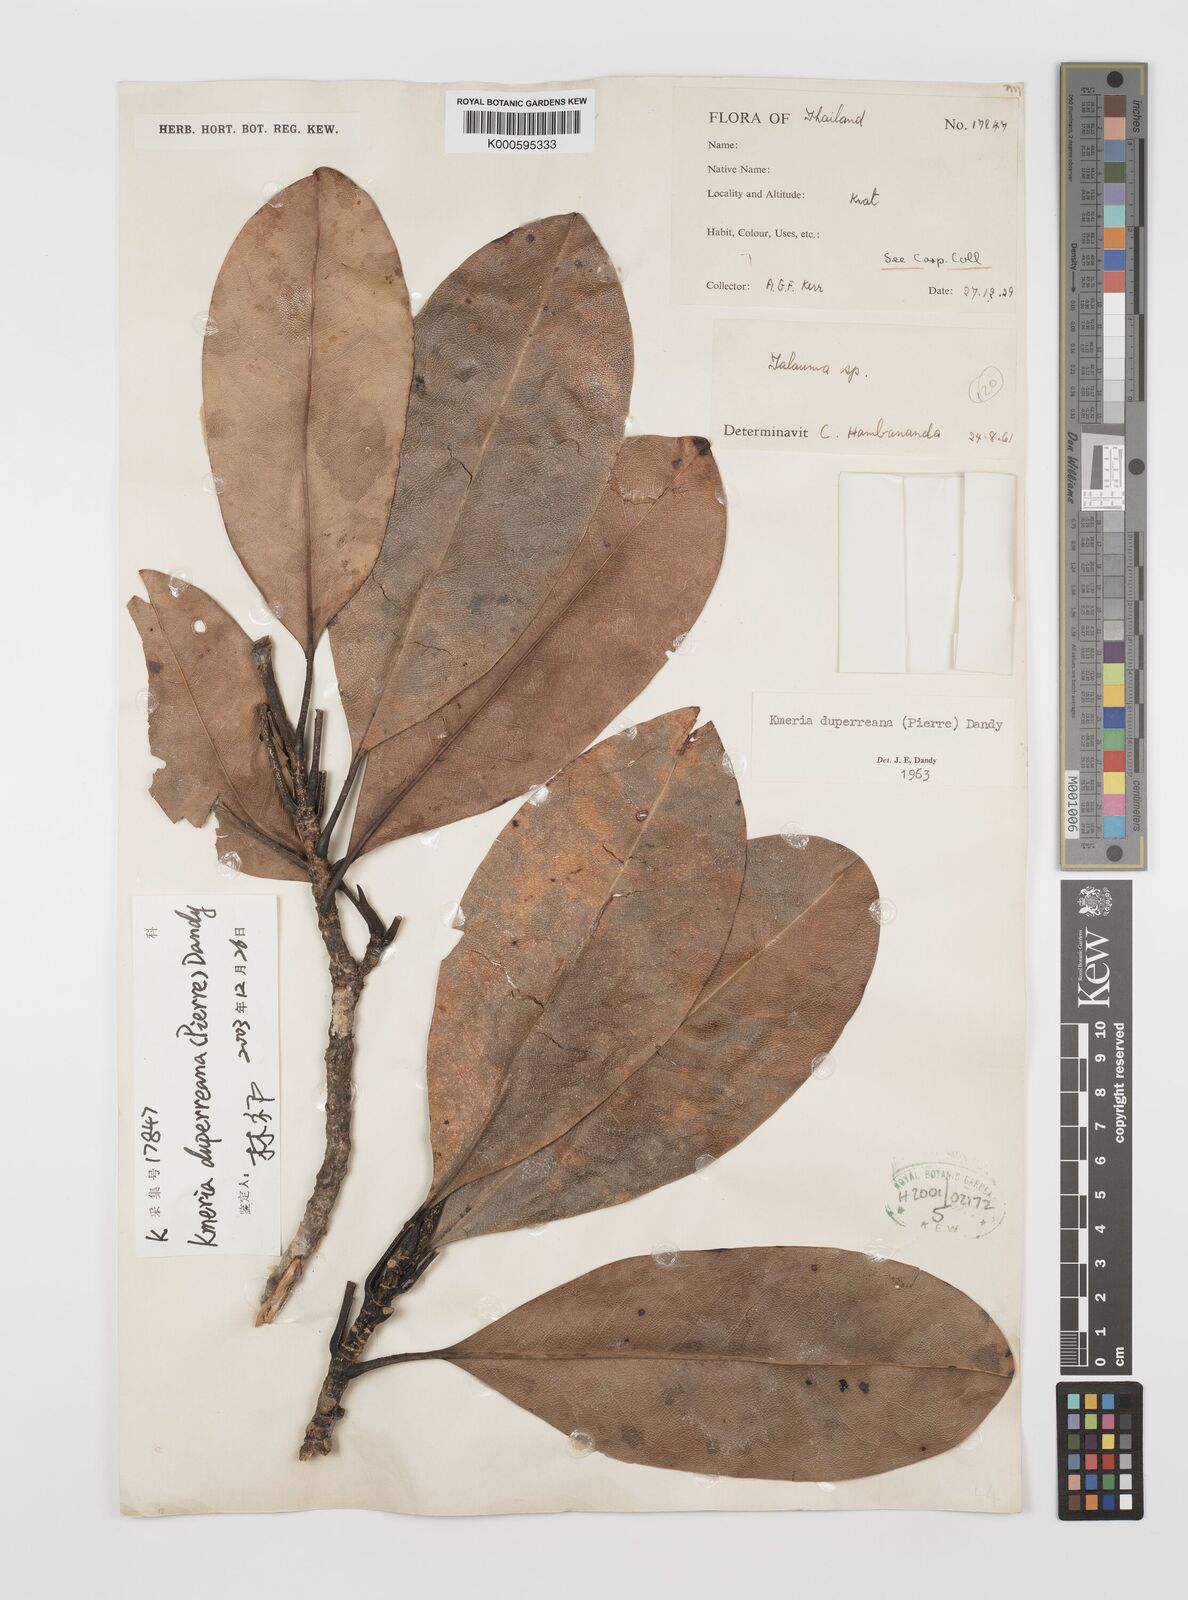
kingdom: Plantae
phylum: Tracheophyta
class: Magnoliopsida
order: Magnoliales
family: Magnoliaceae
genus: Magnolia
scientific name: Magnolia duperreana
